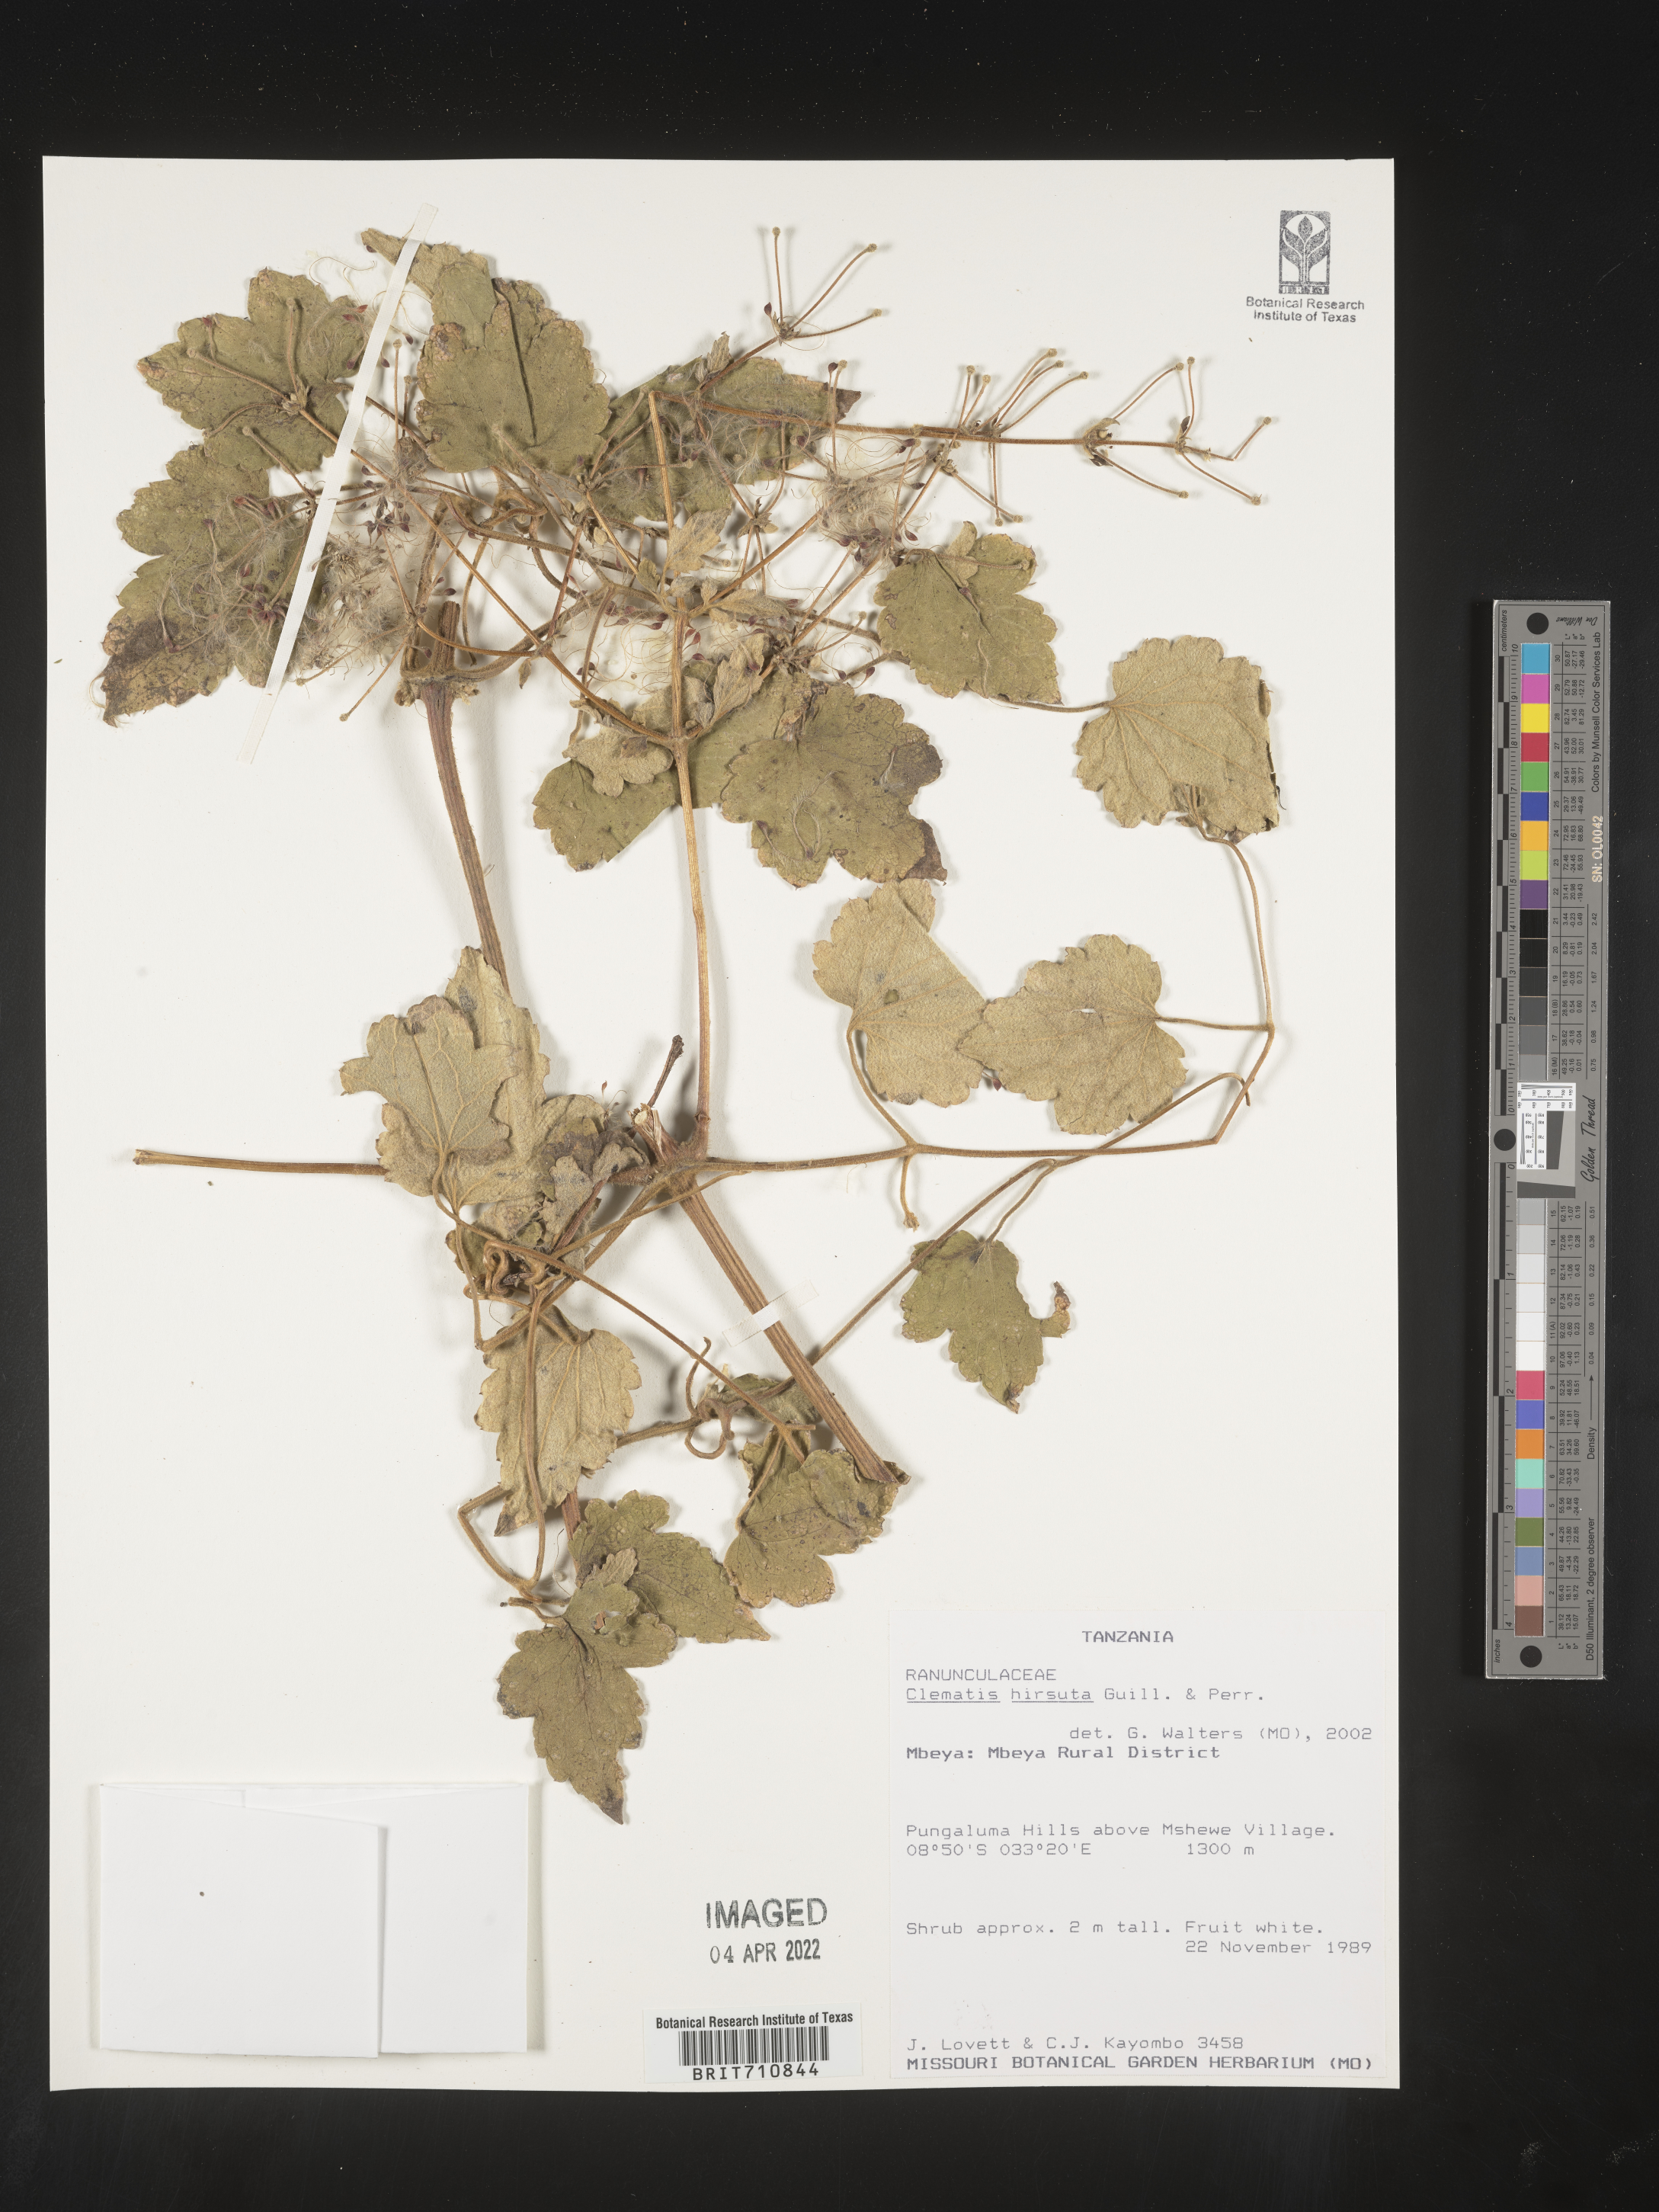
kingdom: Plantae
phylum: Tracheophyta
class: Magnoliopsida
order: Ranunculales
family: Ranunculaceae
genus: Clematis
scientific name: Clematis
